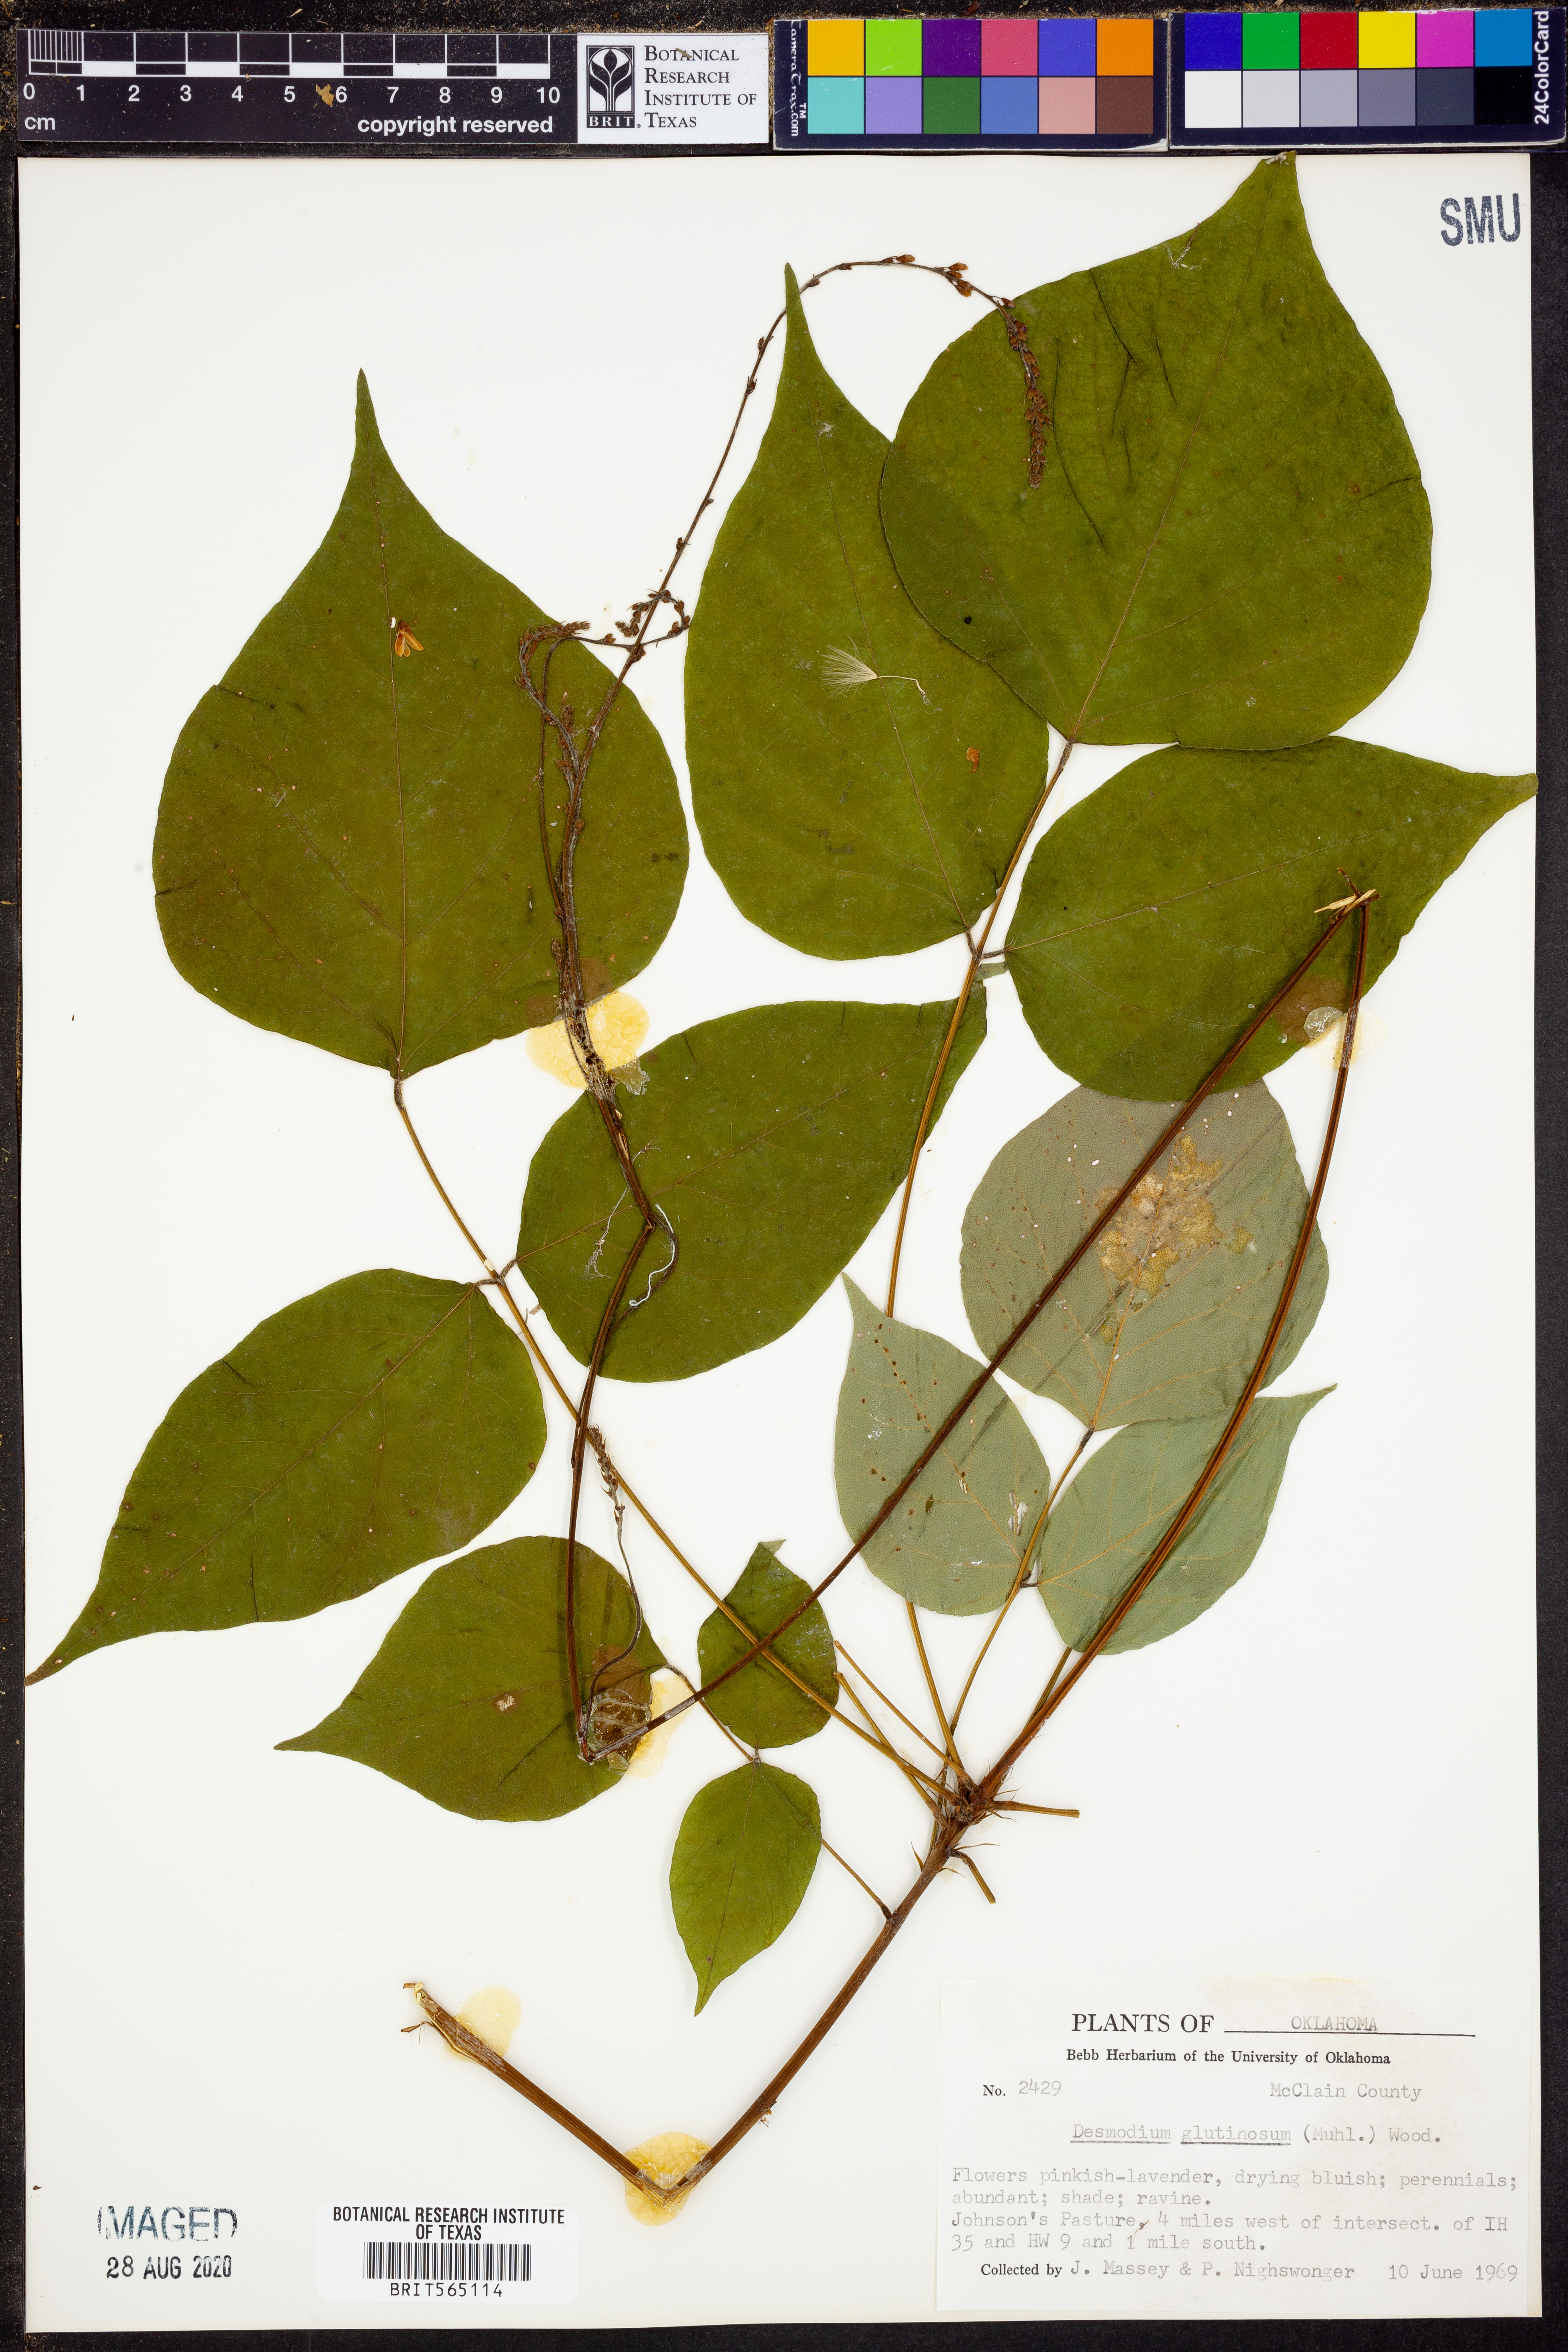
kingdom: Plantae
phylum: Tracheophyta
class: Magnoliopsida
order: Fabales
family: Fabaceae
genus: Hylodesmum
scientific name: Hylodesmum glutinosum
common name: Clustered-leaved tick-trefoil
